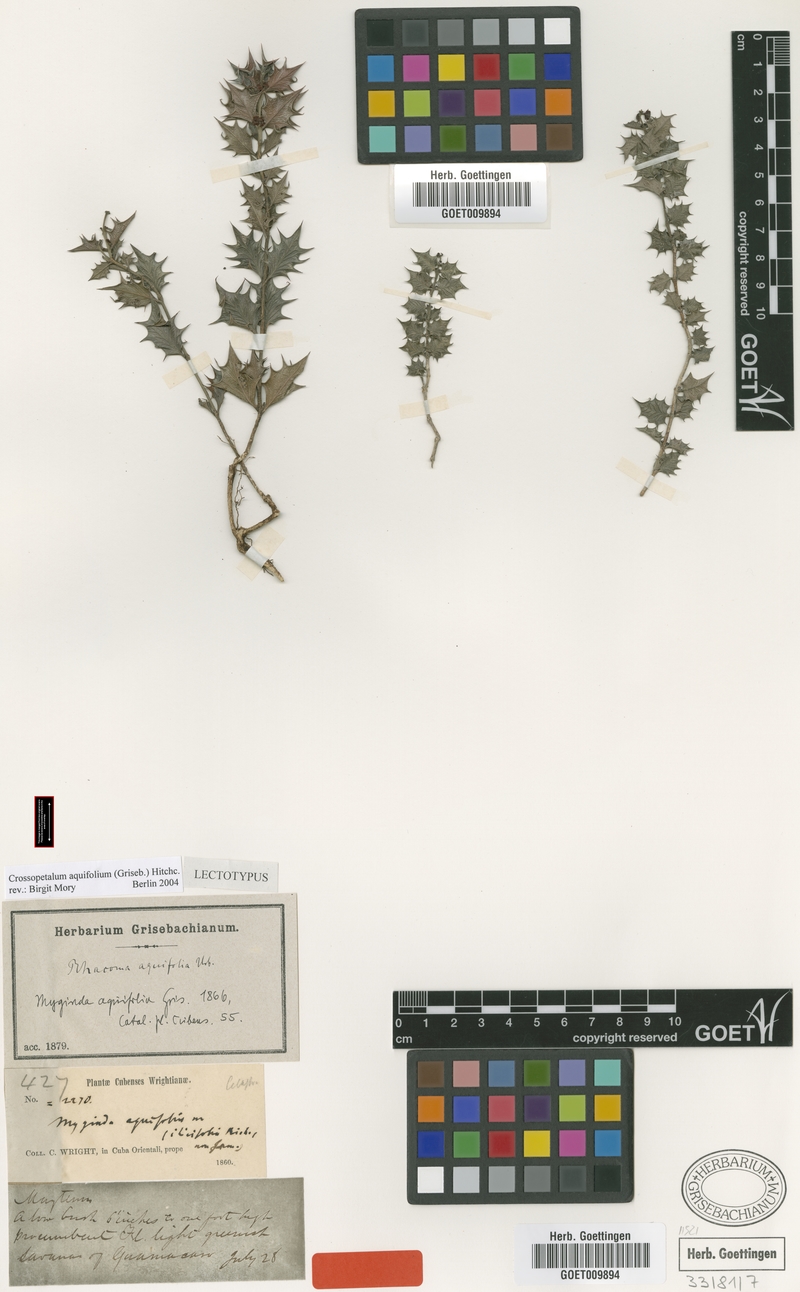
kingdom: Plantae
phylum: Tracheophyta
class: Magnoliopsida
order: Celastrales
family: Celastraceae
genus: Crossopetalum
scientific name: Crossopetalum aquifolium
